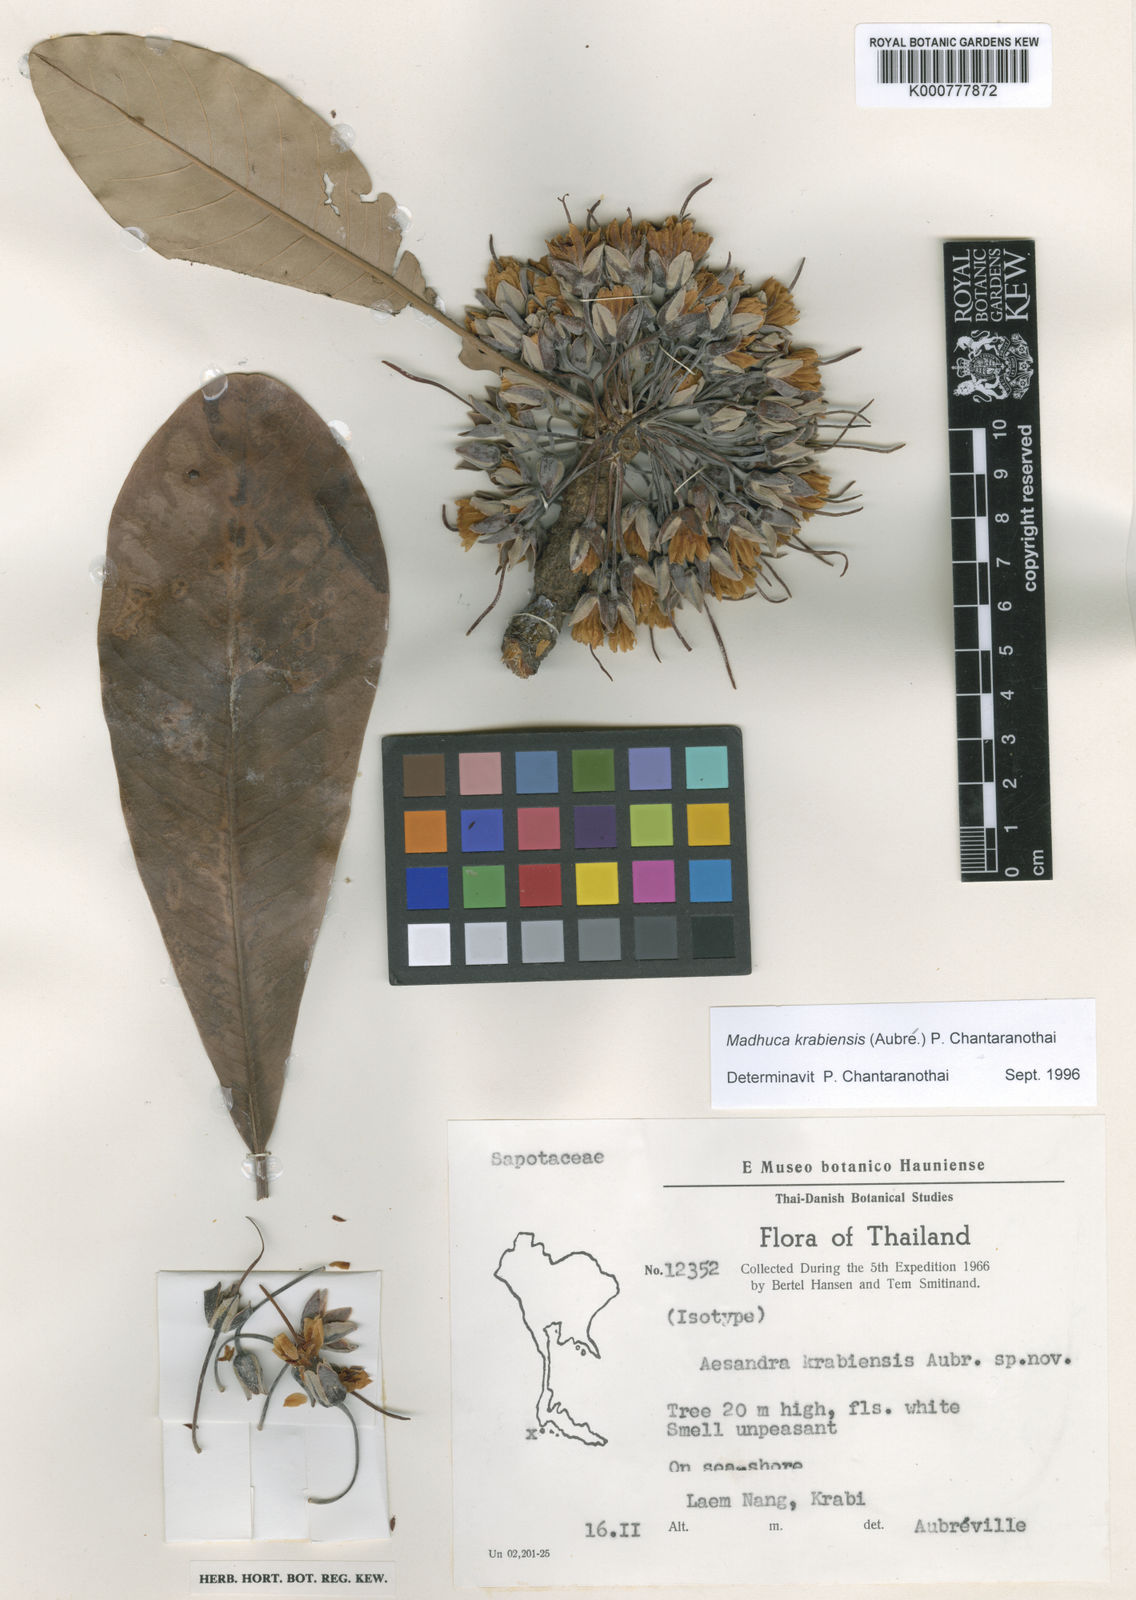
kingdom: Plantae
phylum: Tracheophyta
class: Magnoliopsida
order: Ericales
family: Sapotaceae
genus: Madhuca
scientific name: Madhuca
